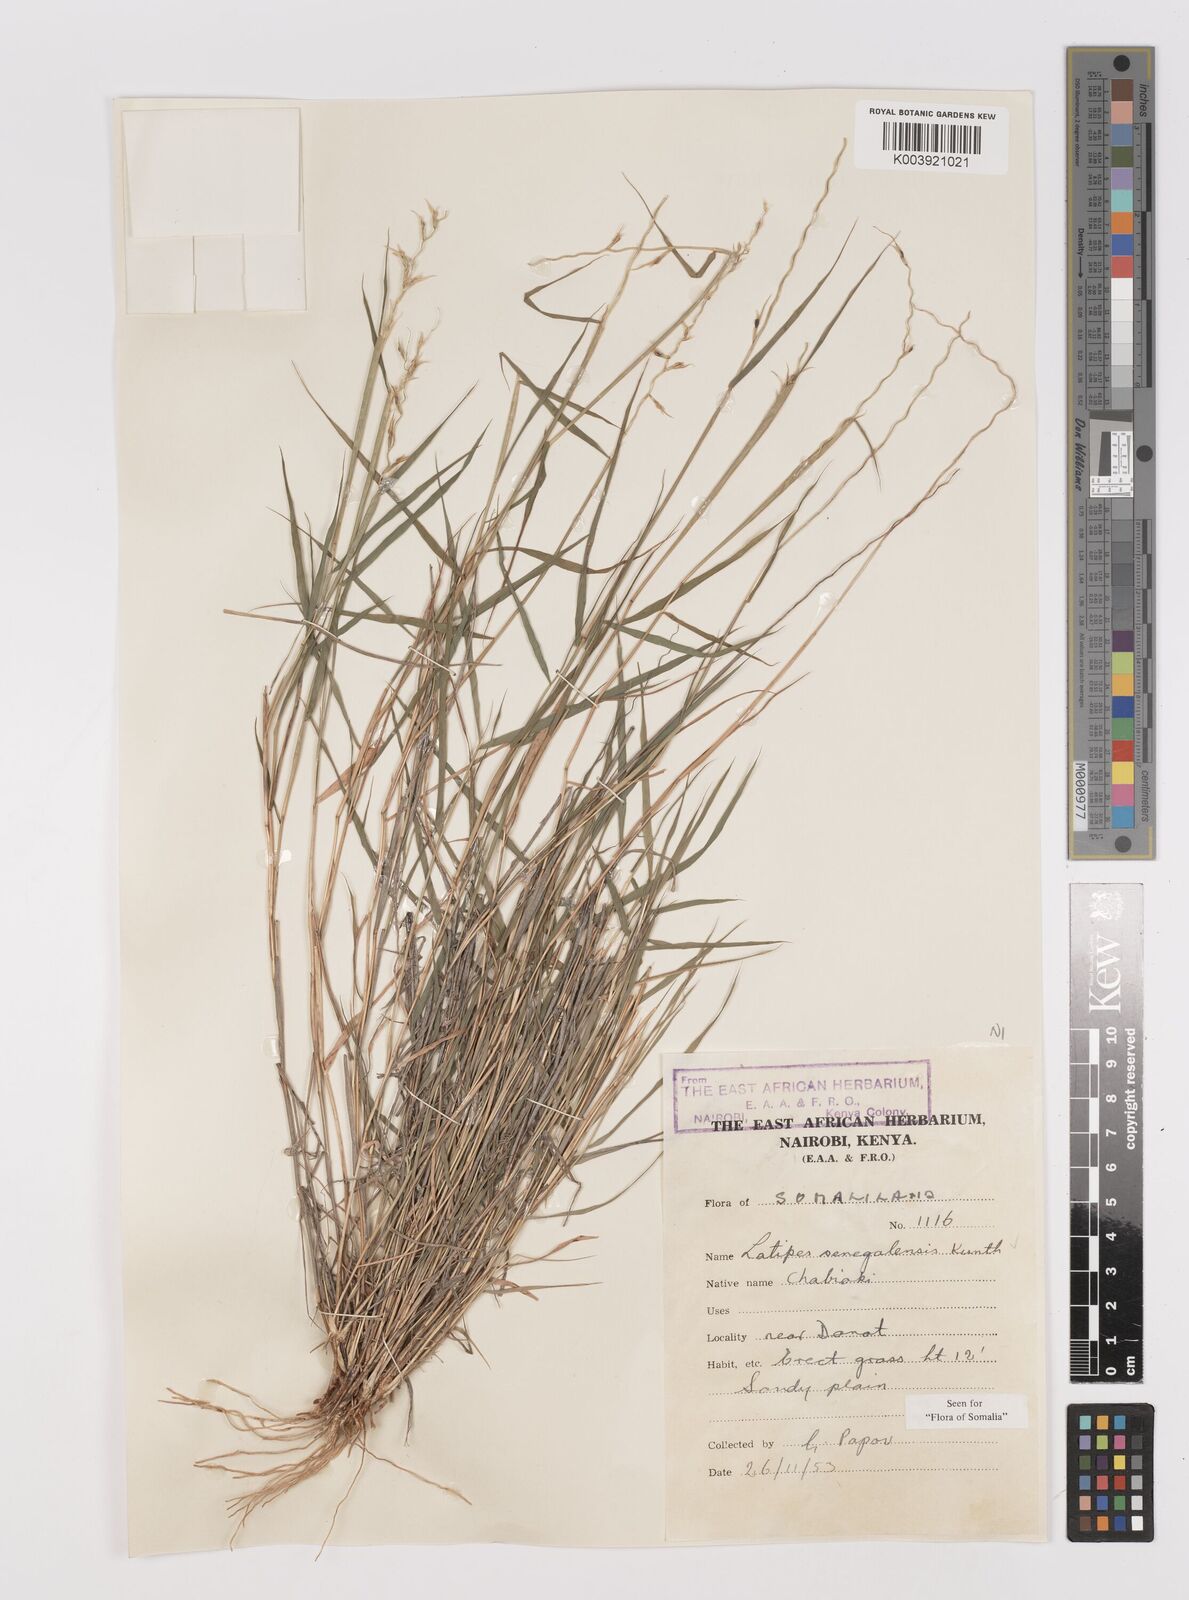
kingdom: Plantae
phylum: Tracheophyta
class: Liliopsida
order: Poales
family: Poaceae
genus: Leptothrium
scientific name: Leptothrium senegalense
